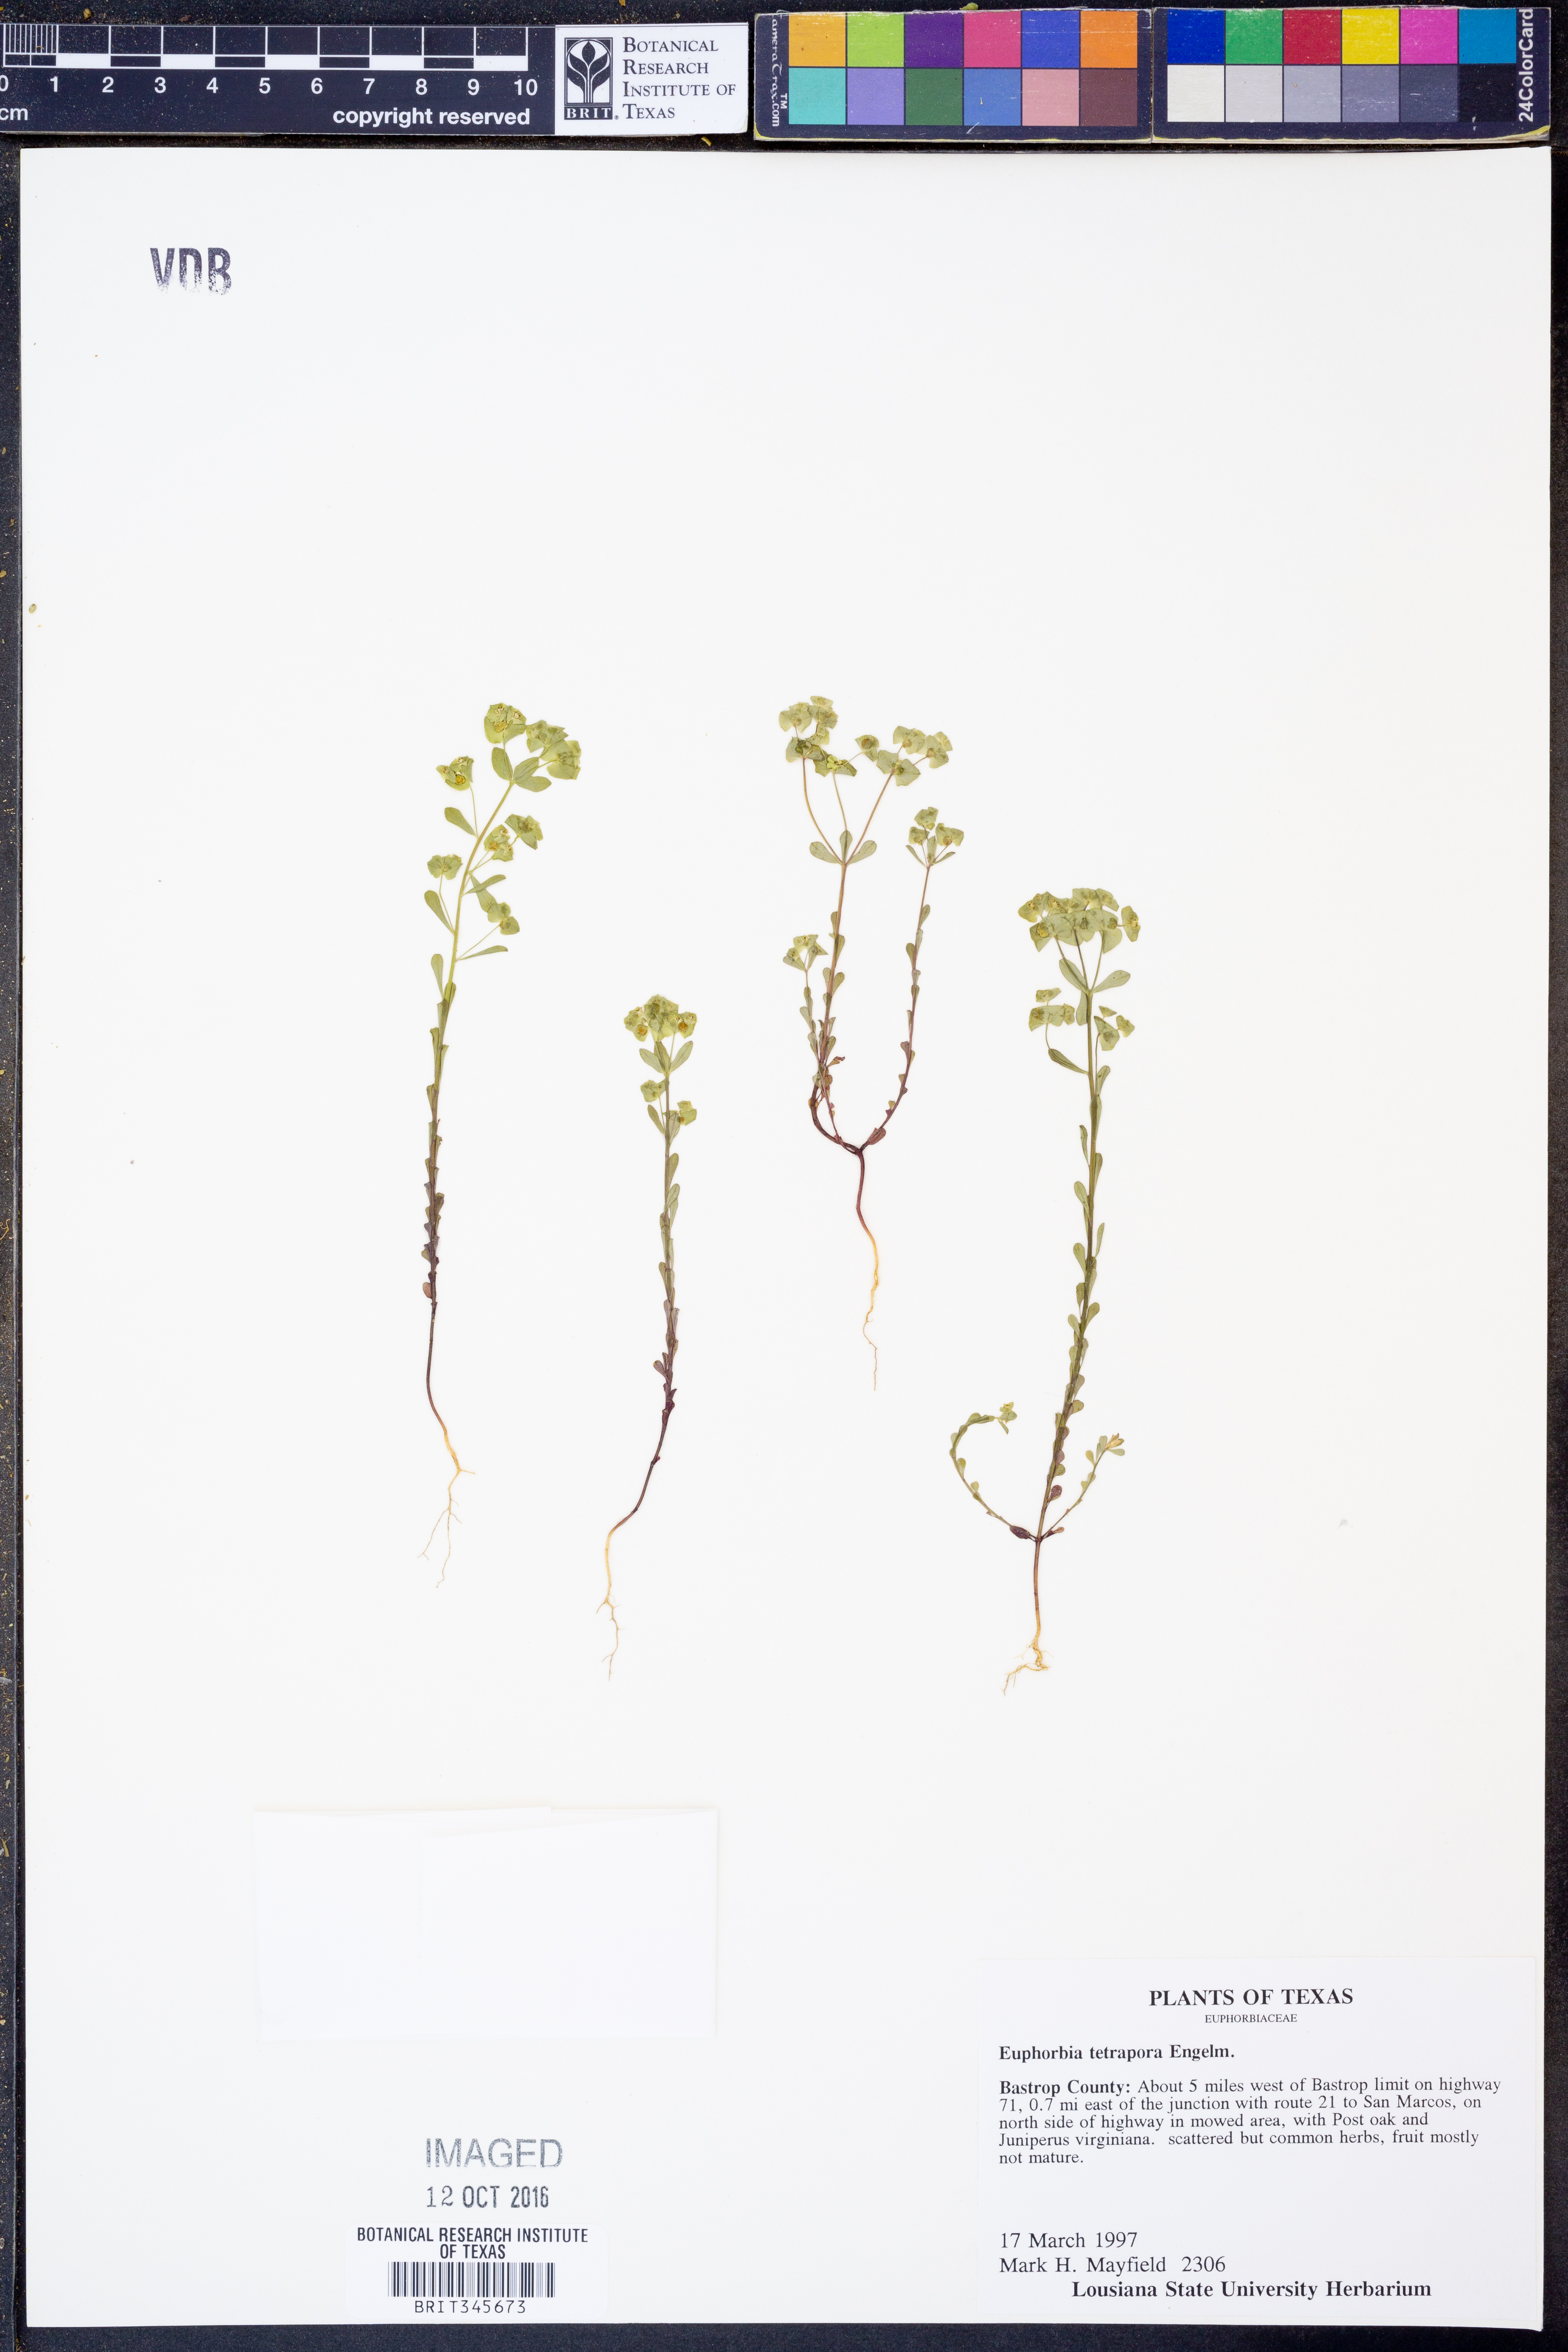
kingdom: Plantae
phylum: Tracheophyta
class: Magnoliopsida
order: Malpighiales
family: Euphorbiaceae
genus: Euphorbia
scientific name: Euphorbia tetrapora
